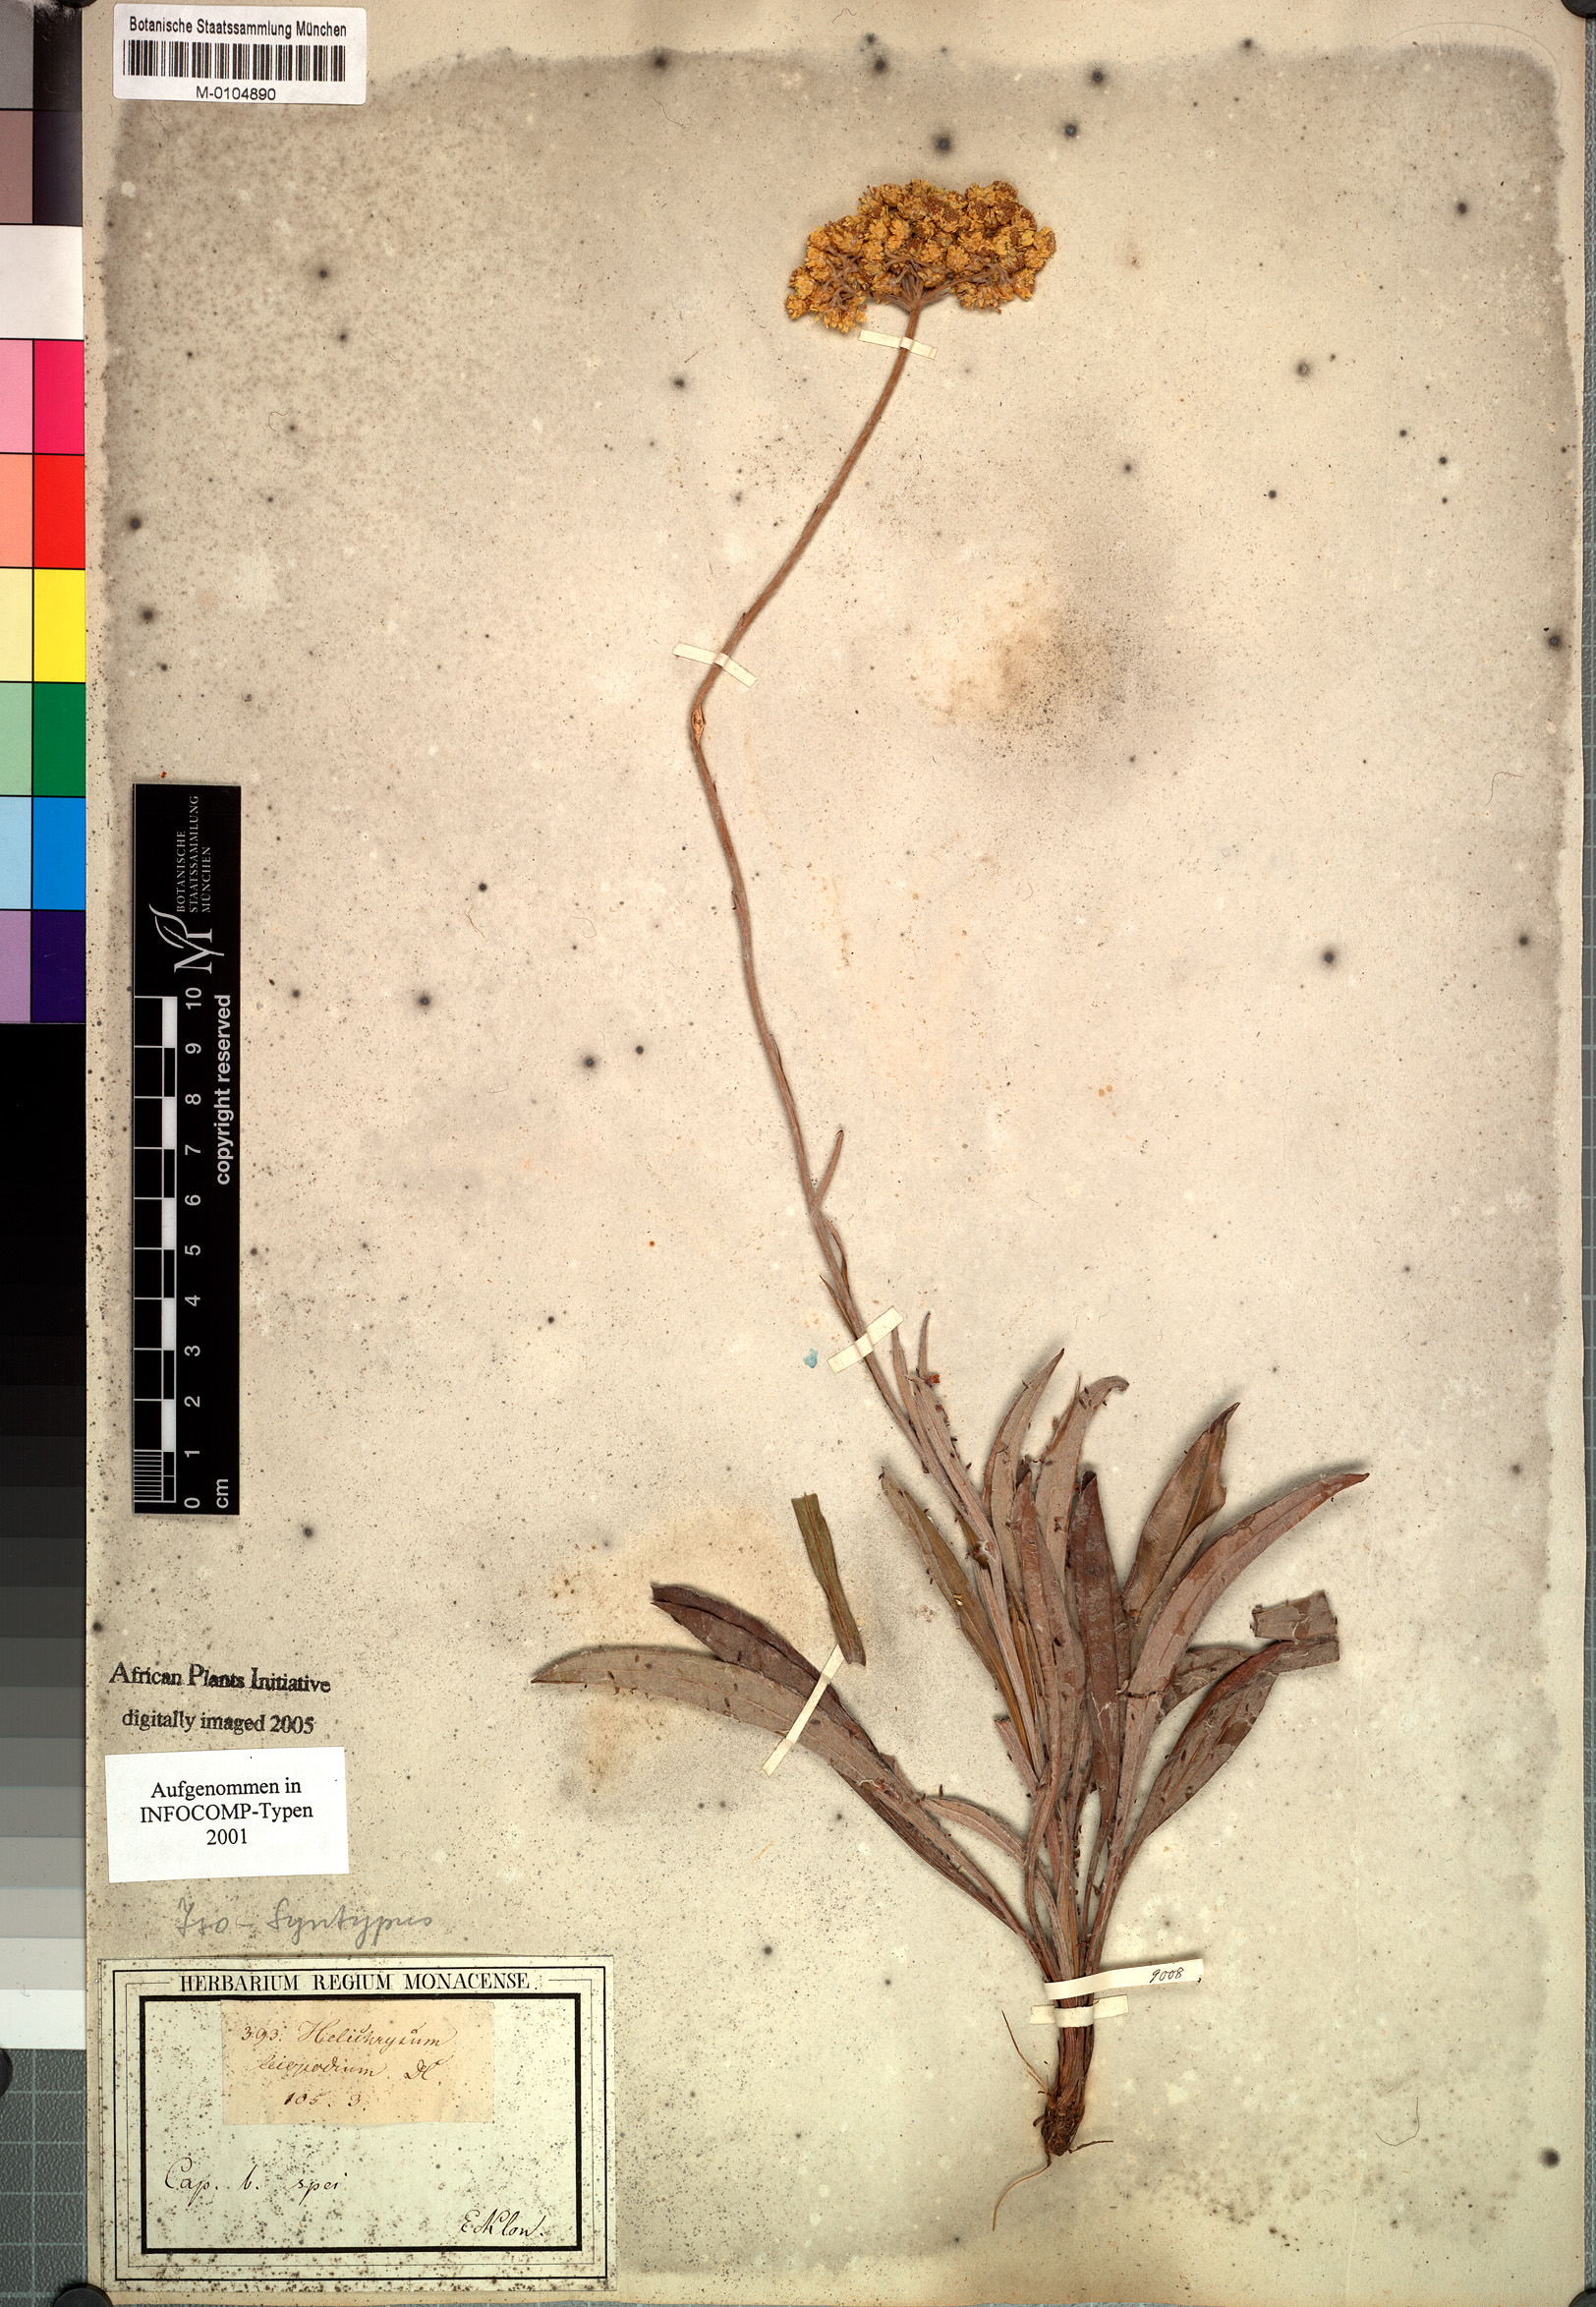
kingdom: Plantae
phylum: Tracheophyta
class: Magnoliopsida
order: Asterales
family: Asteraceae
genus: Helichrysum
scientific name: Helichrysum nudifolium
